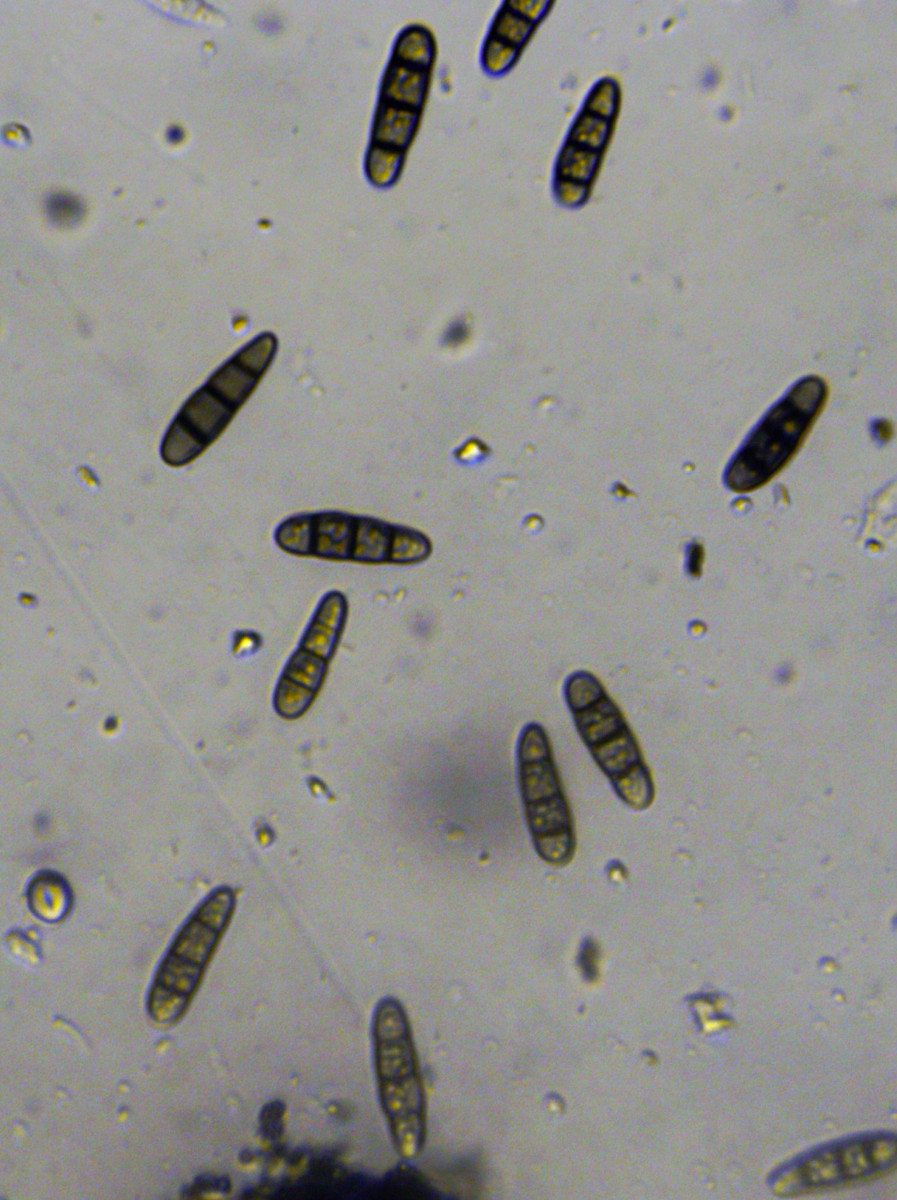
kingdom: Fungi
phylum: Ascomycota
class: Dothideomycetes
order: Hysteriales
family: Hysteriaceae
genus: Hysterium
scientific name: Hysterium acuminatum
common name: almindelig kulmund
